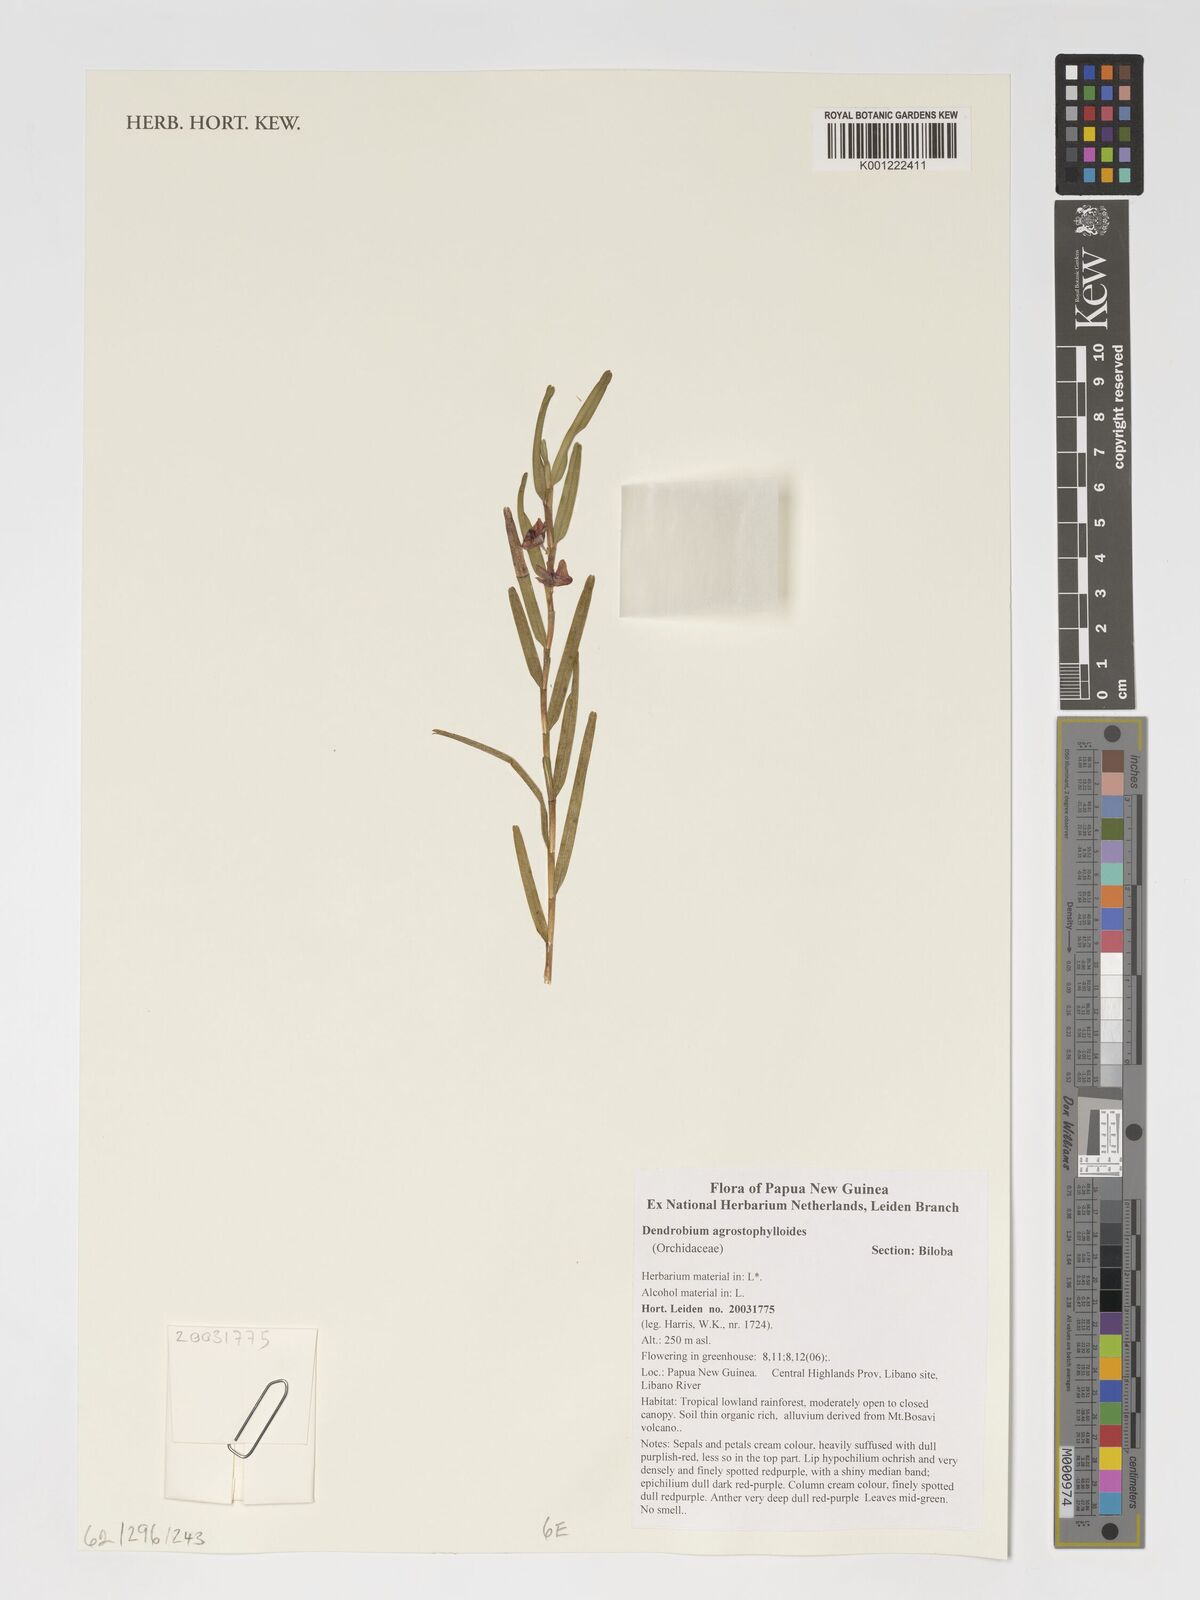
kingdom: Plantae
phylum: Tracheophyta
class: Liliopsida
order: Asparagales
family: Orchidaceae
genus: Dendrobium
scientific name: Dendrobium agrostophylloides
